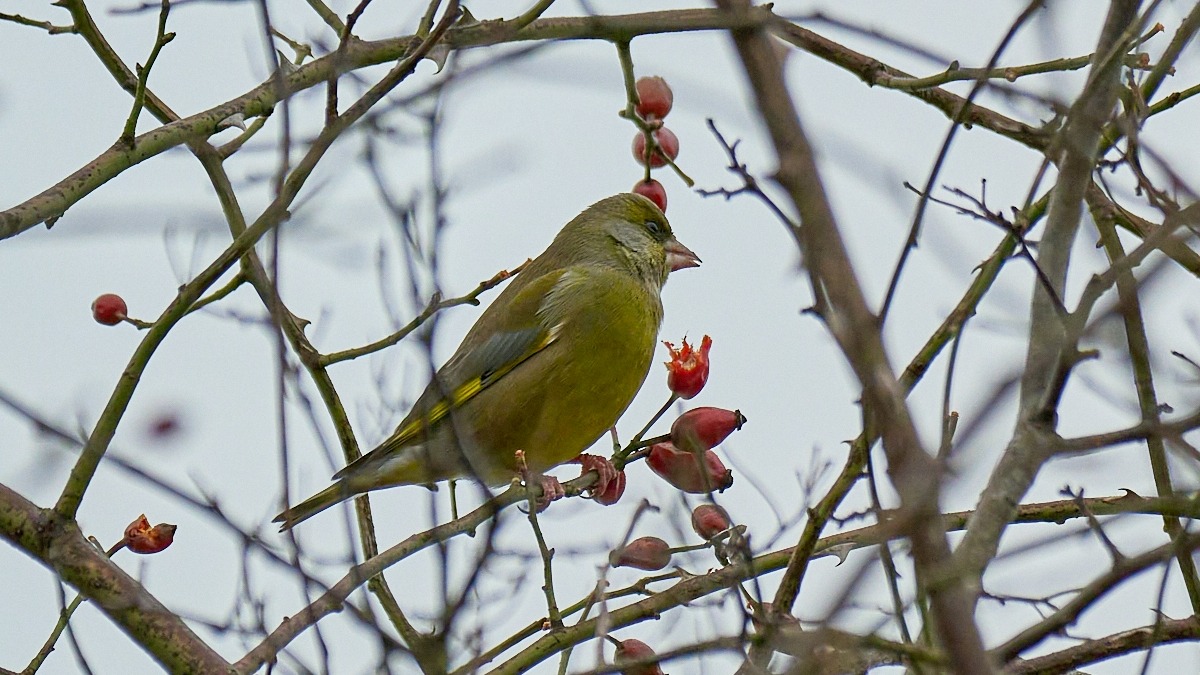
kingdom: Plantae
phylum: Tracheophyta
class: Liliopsida
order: Poales
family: Poaceae
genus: Chloris
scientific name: Chloris chloris
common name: Grønirisk
